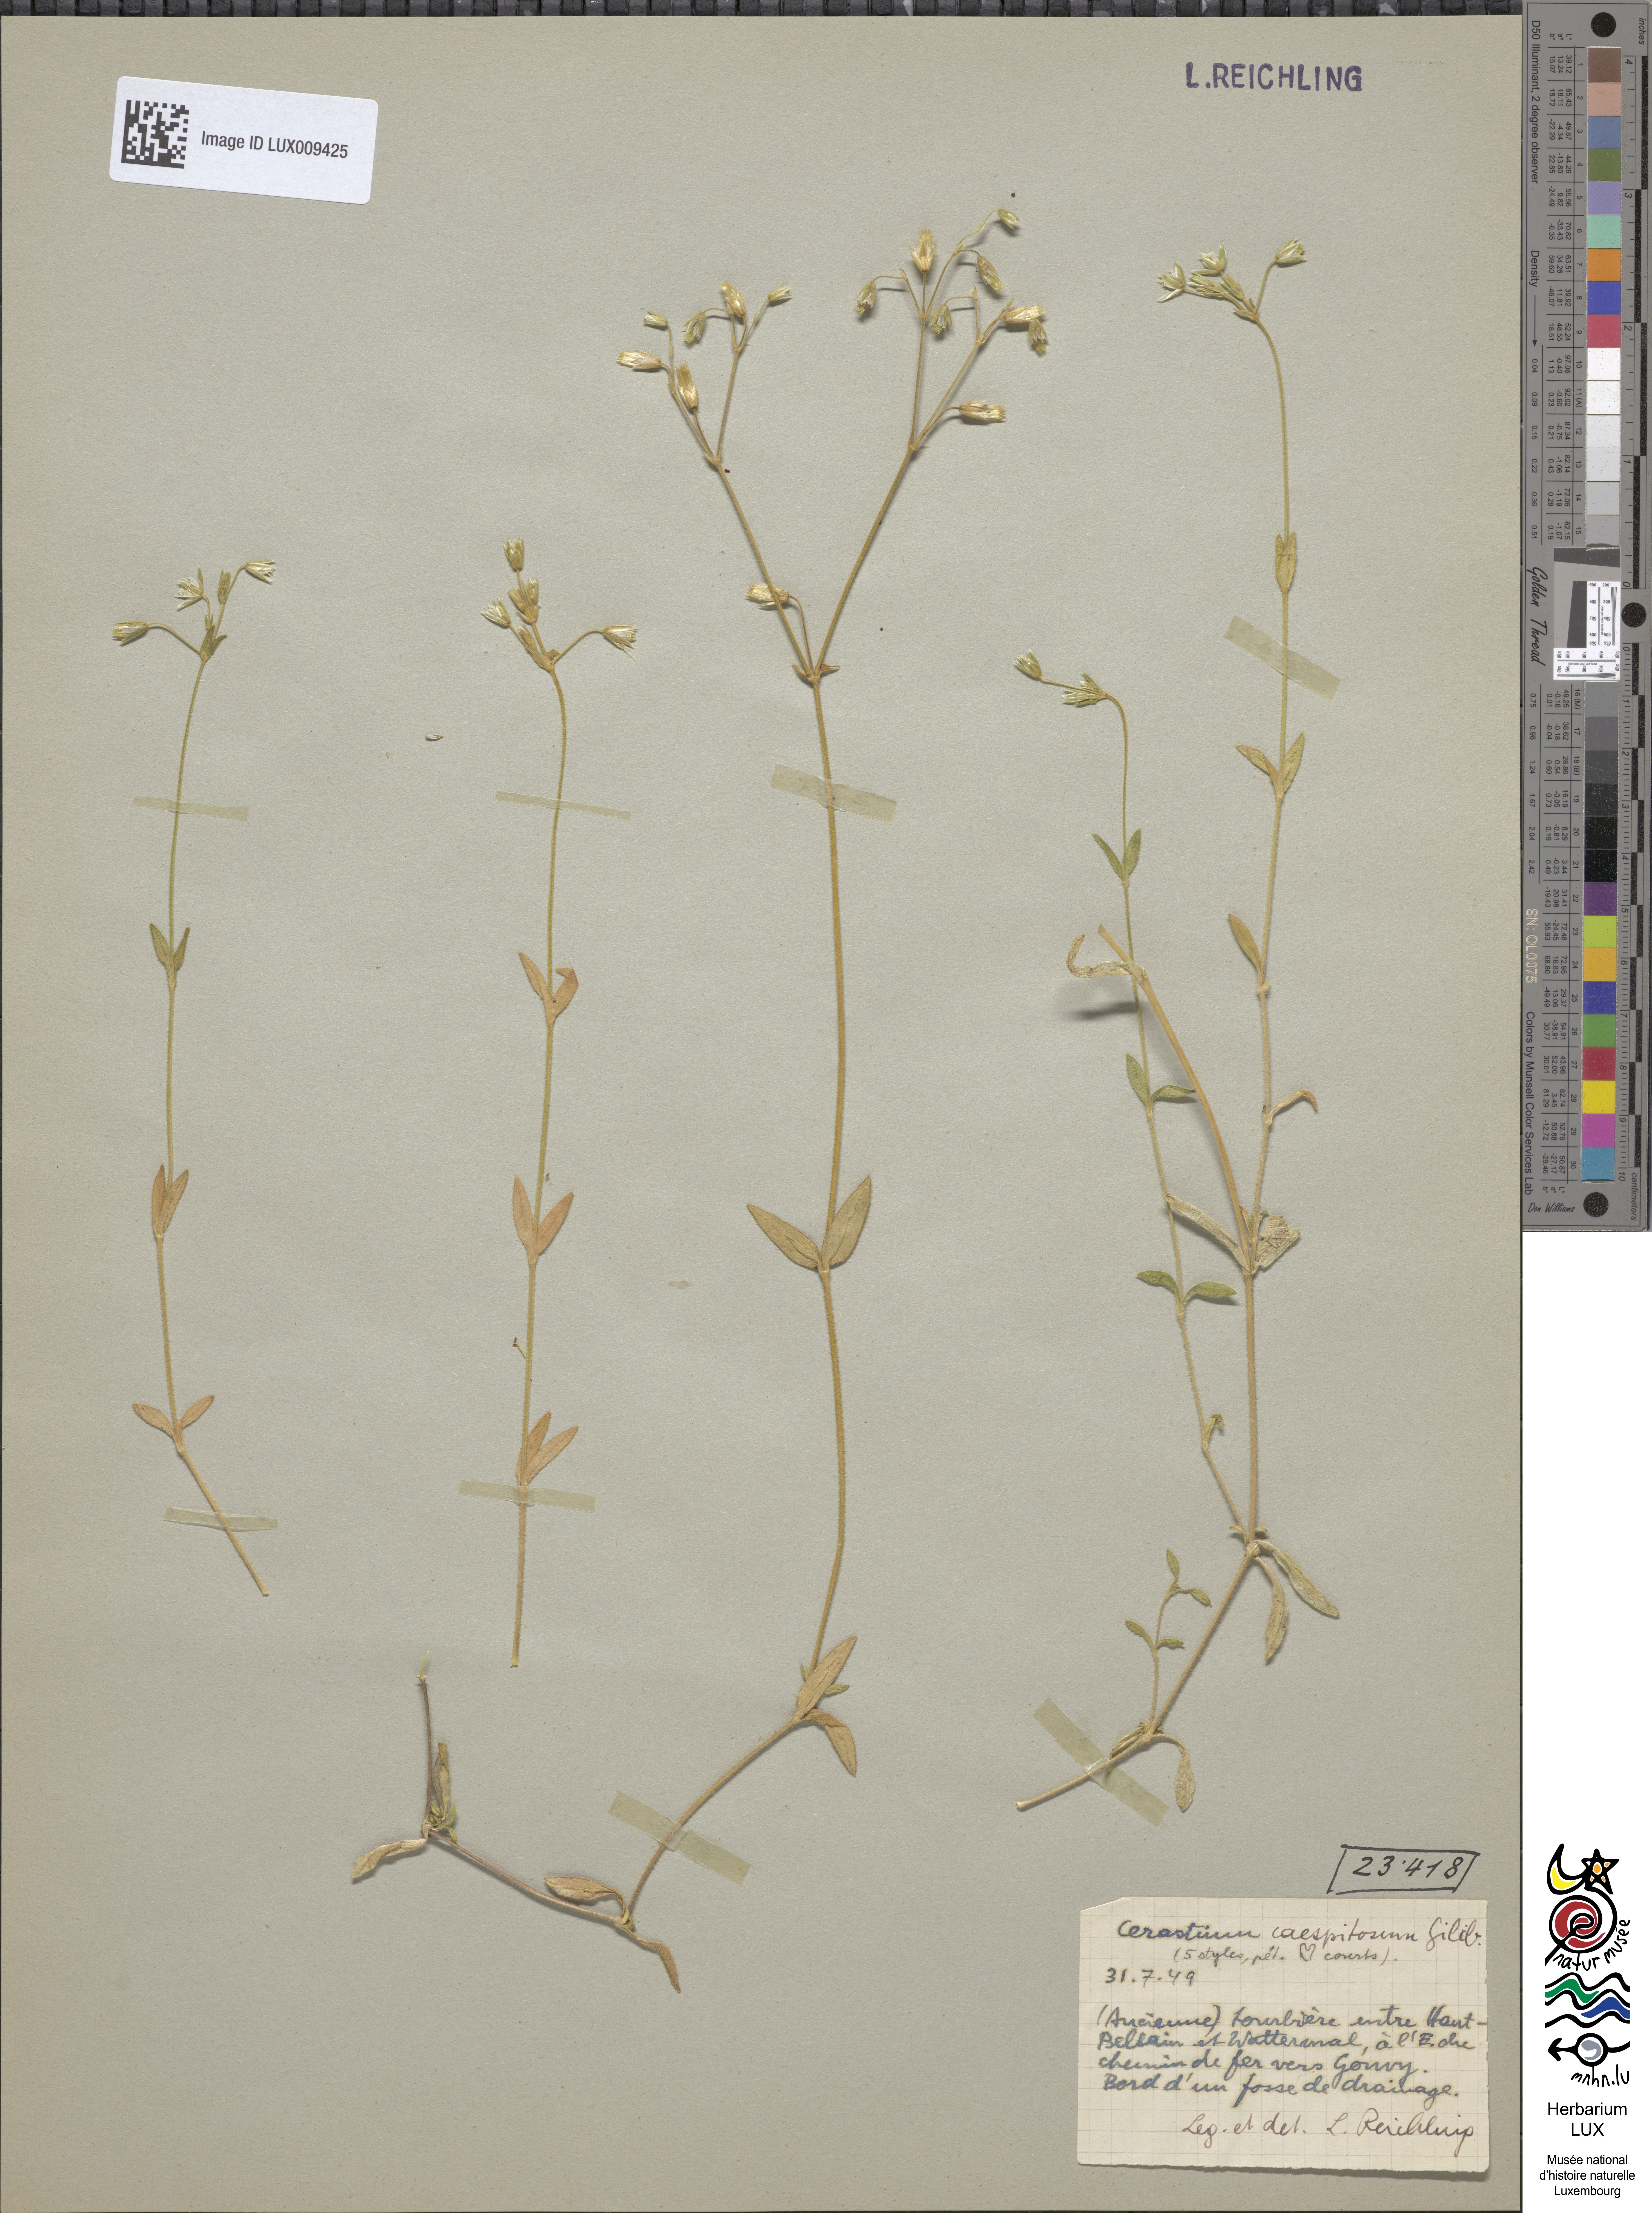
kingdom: Plantae
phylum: Tracheophyta
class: Magnoliopsida
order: Caryophyllales
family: Caryophyllaceae
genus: Cerastium
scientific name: Cerastium holosteoides
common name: Big chickweed
